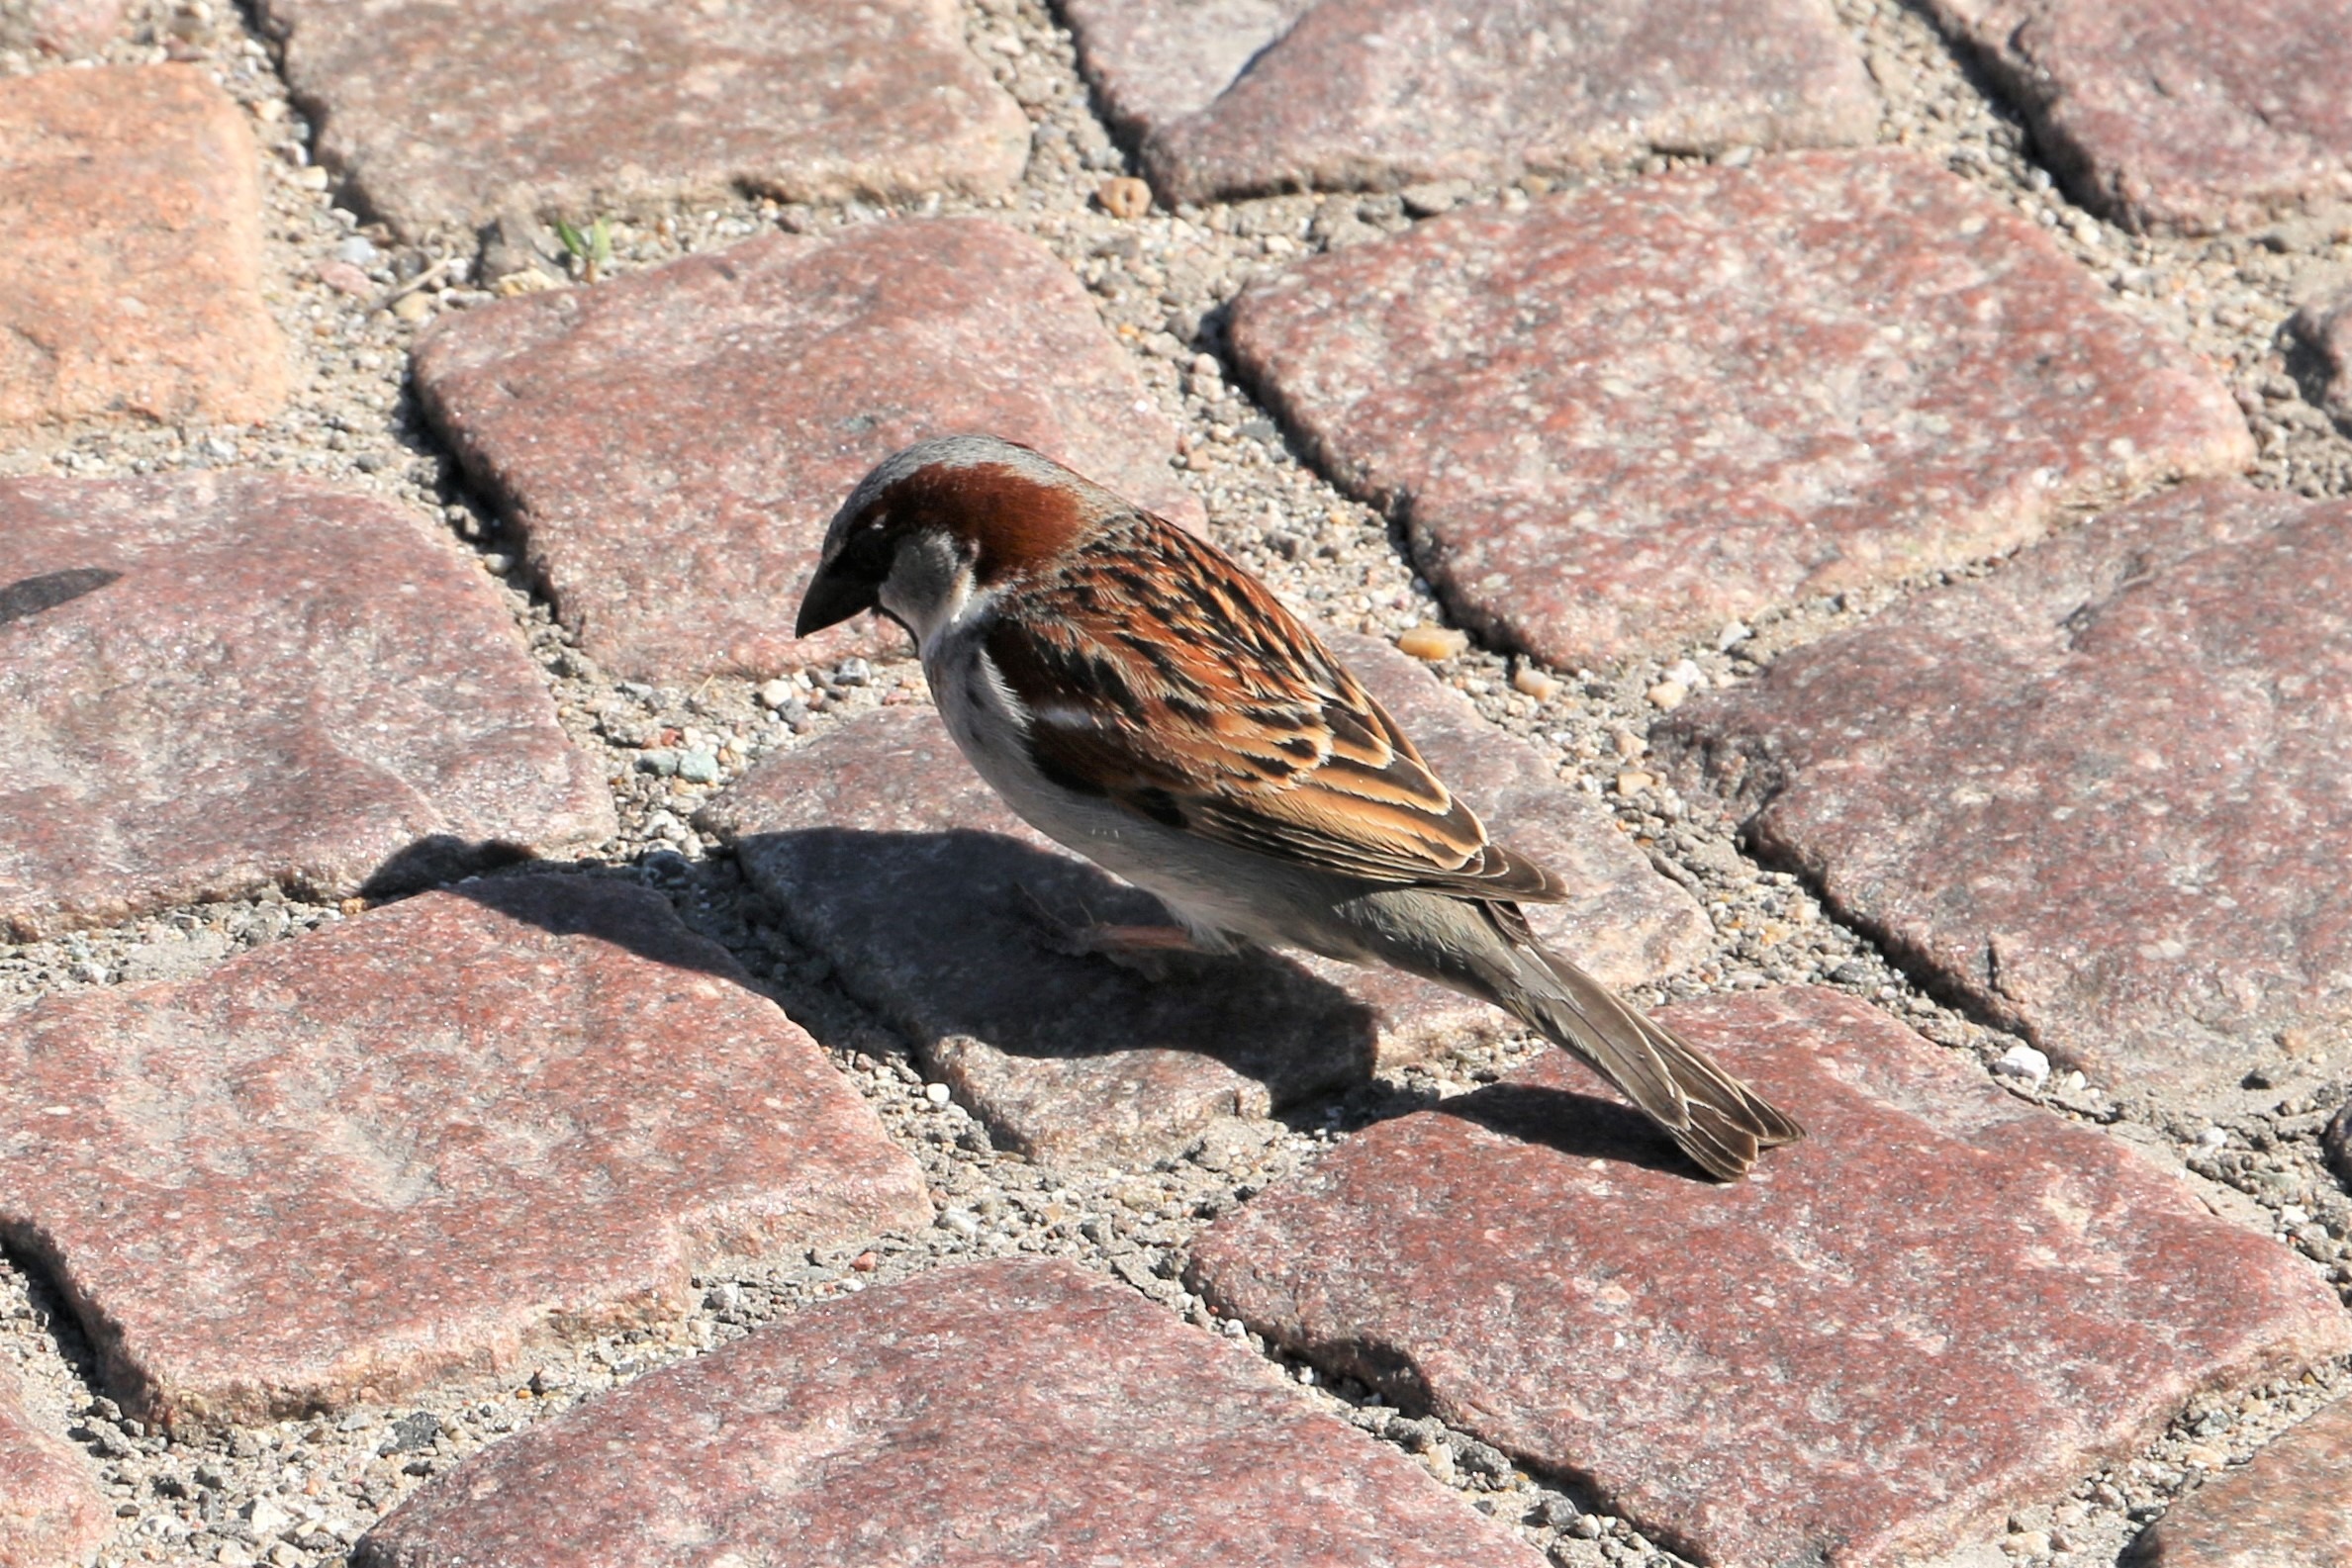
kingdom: Animalia
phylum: Chordata
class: Aves
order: Passeriformes
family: Passeridae
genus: Passer
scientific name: Passer domesticus
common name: Gråspurv
